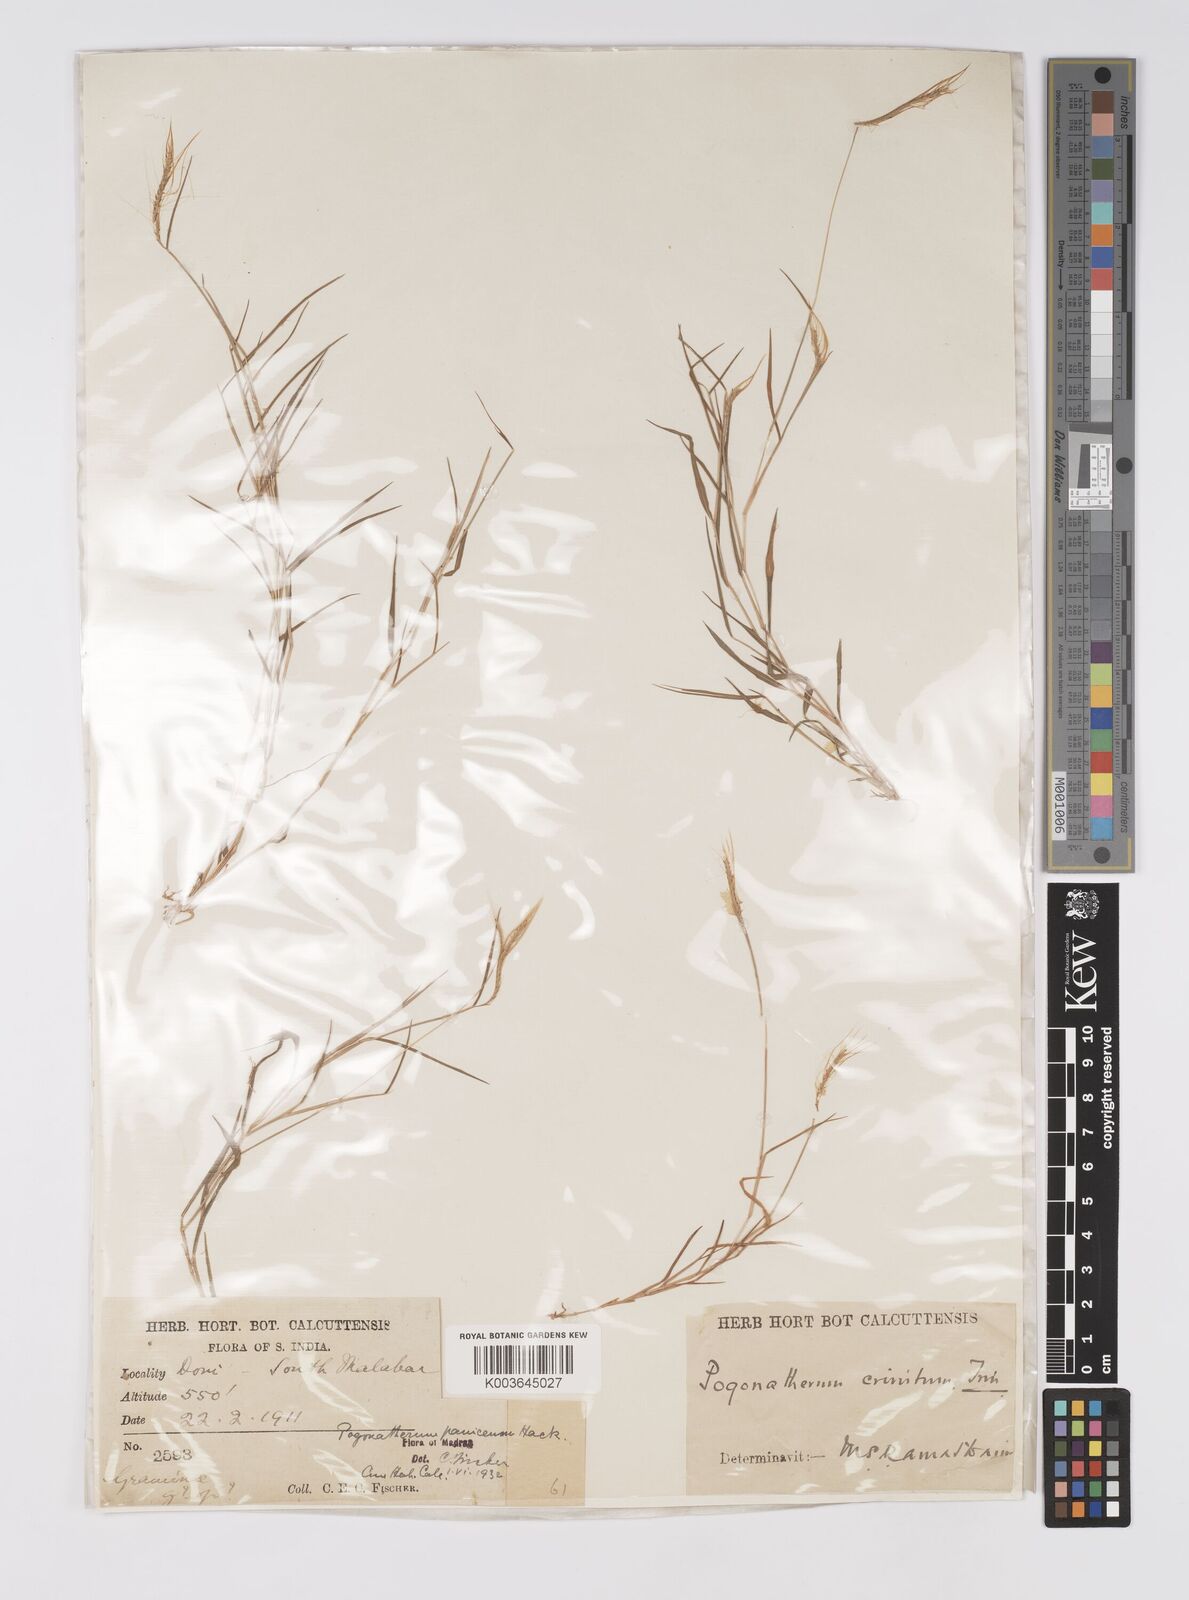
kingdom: Plantae
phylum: Tracheophyta
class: Liliopsida
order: Poales
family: Poaceae
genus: Pogonatherum
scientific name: Pogonatherum crinitum
